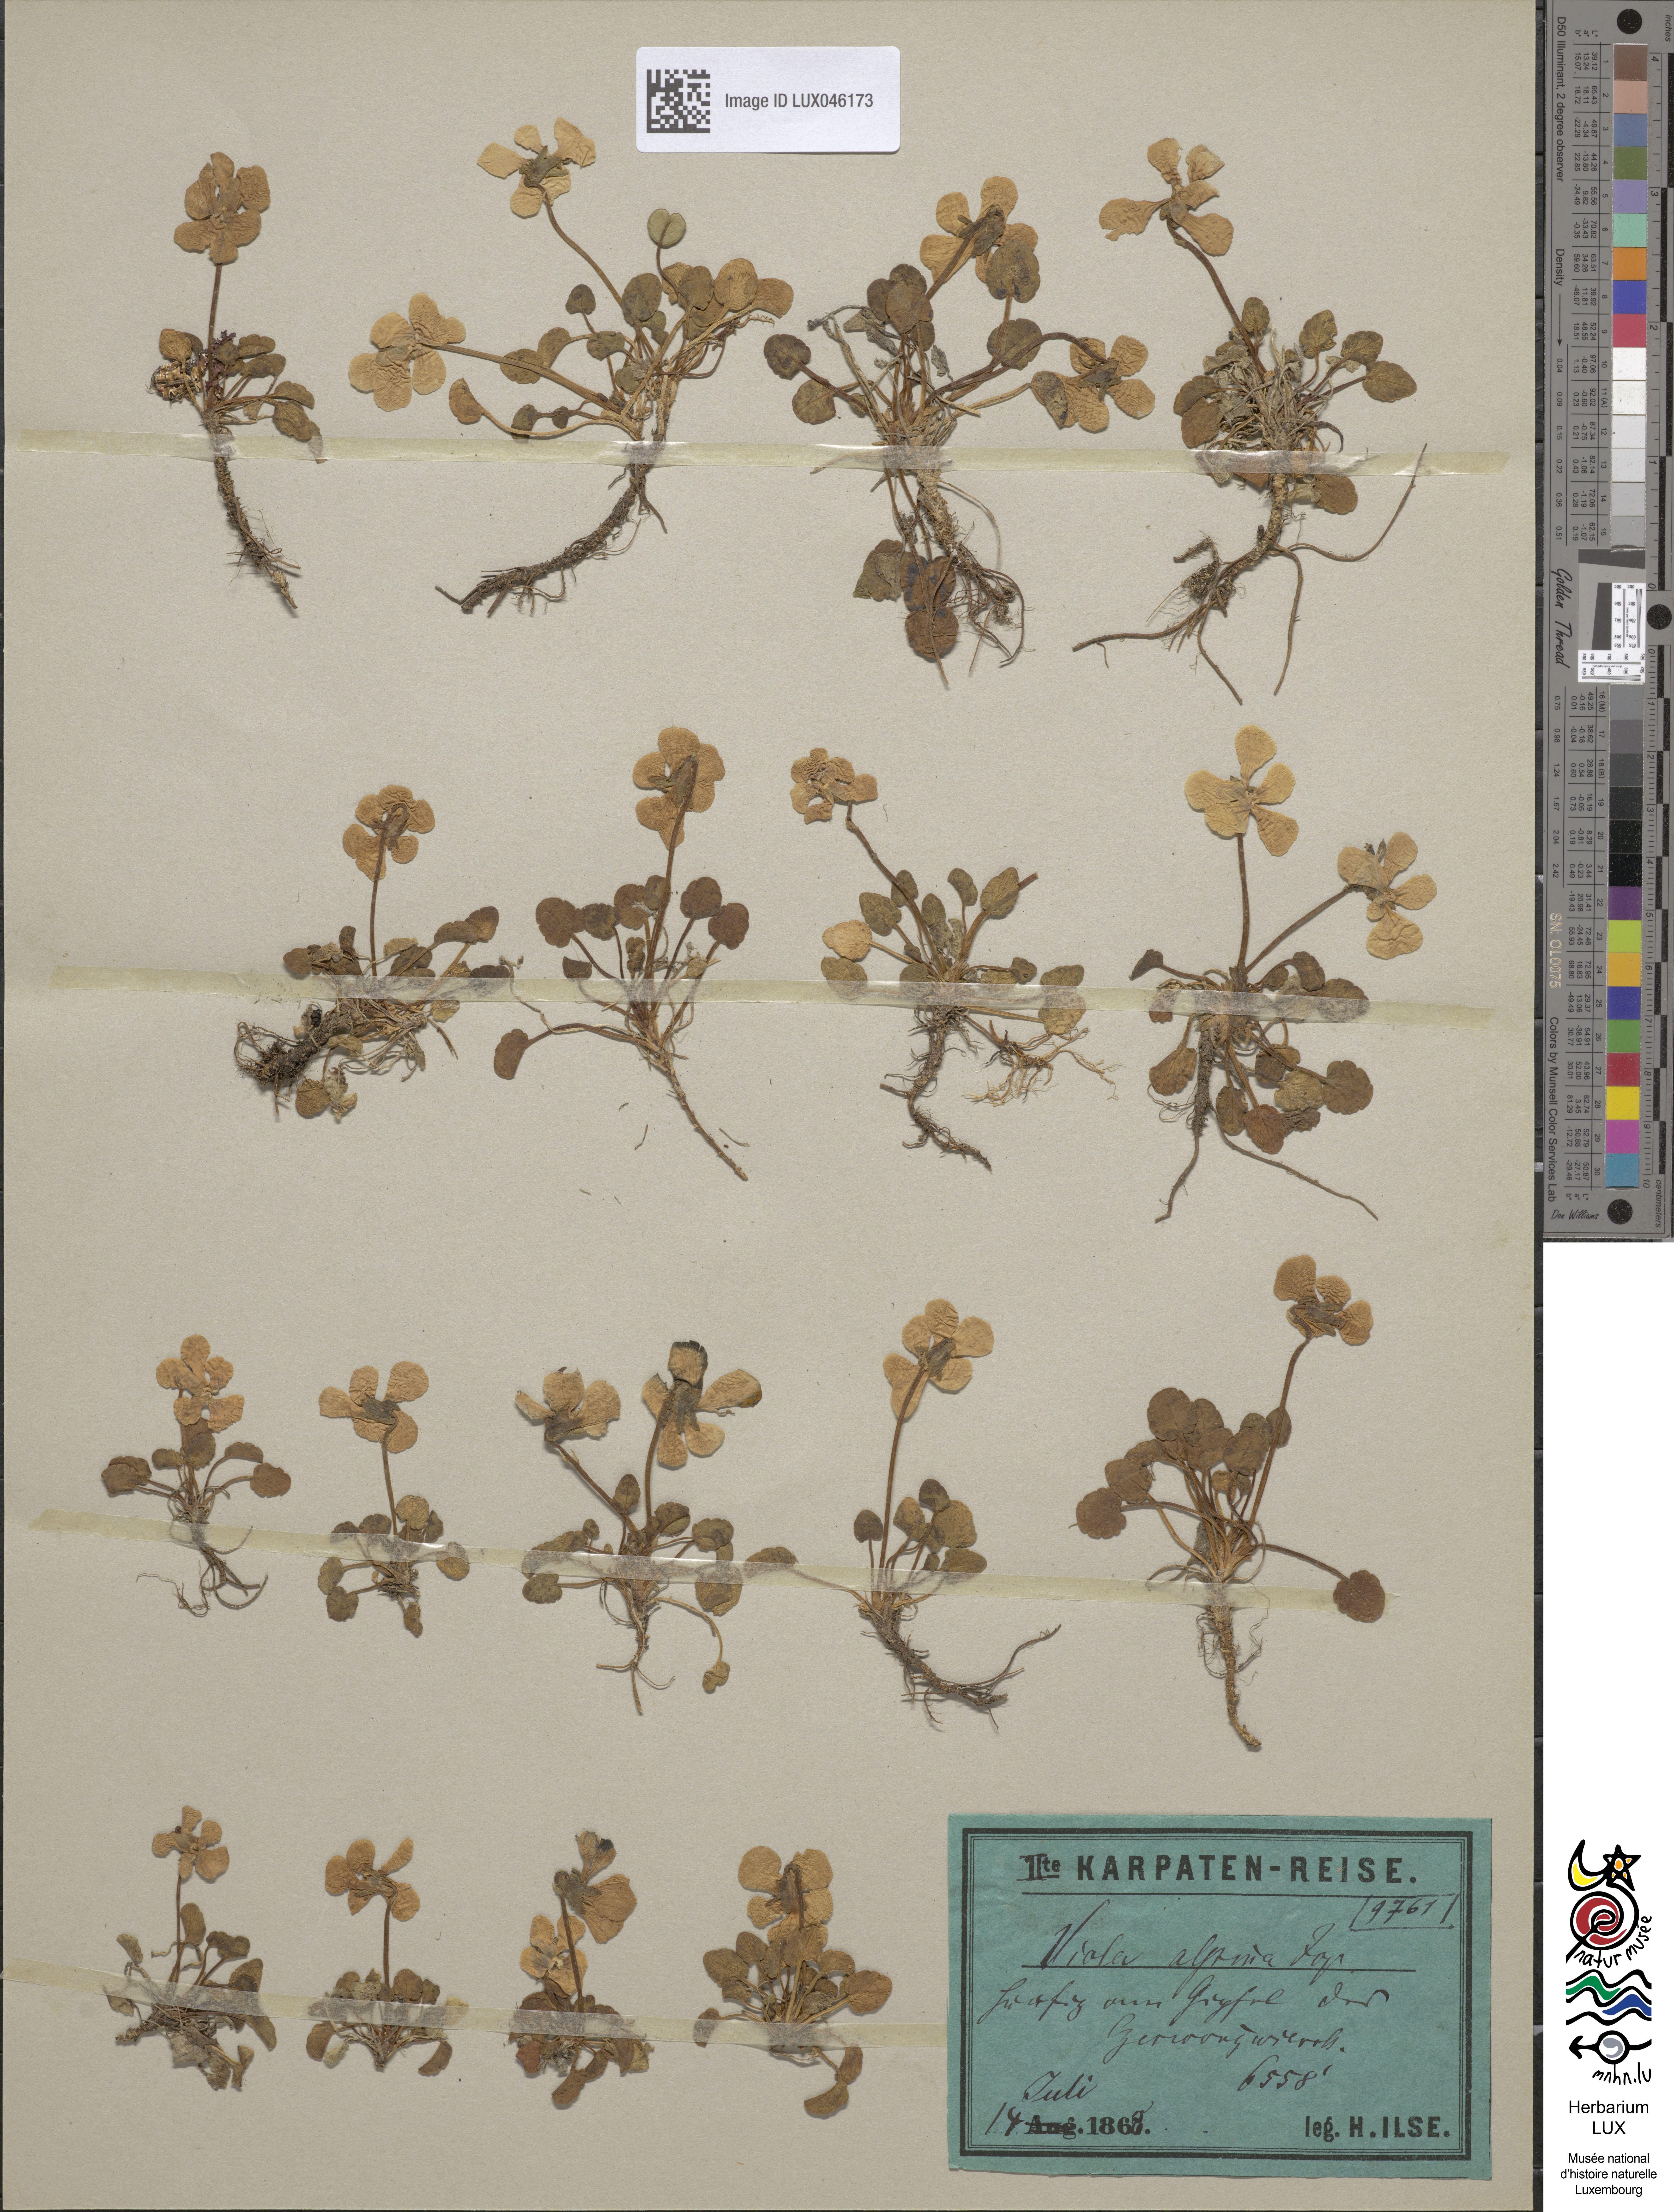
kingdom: Plantae
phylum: Tracheophyta
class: Magnoliopsida
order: Malpighiales
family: Violaceae
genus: Viola
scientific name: Viola alpina
